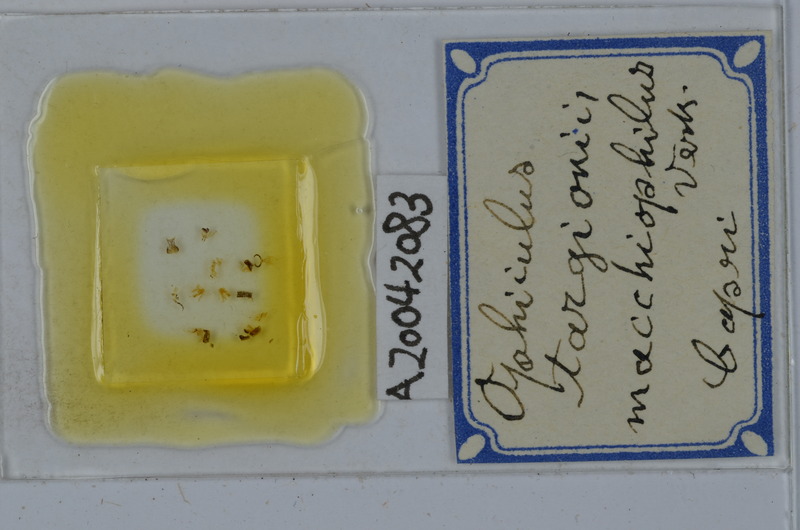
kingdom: Animalia
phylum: Arthropoda
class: Diplopoda
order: Julida
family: Julidae
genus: Ophyiulus
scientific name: Ophyiulus targionii
